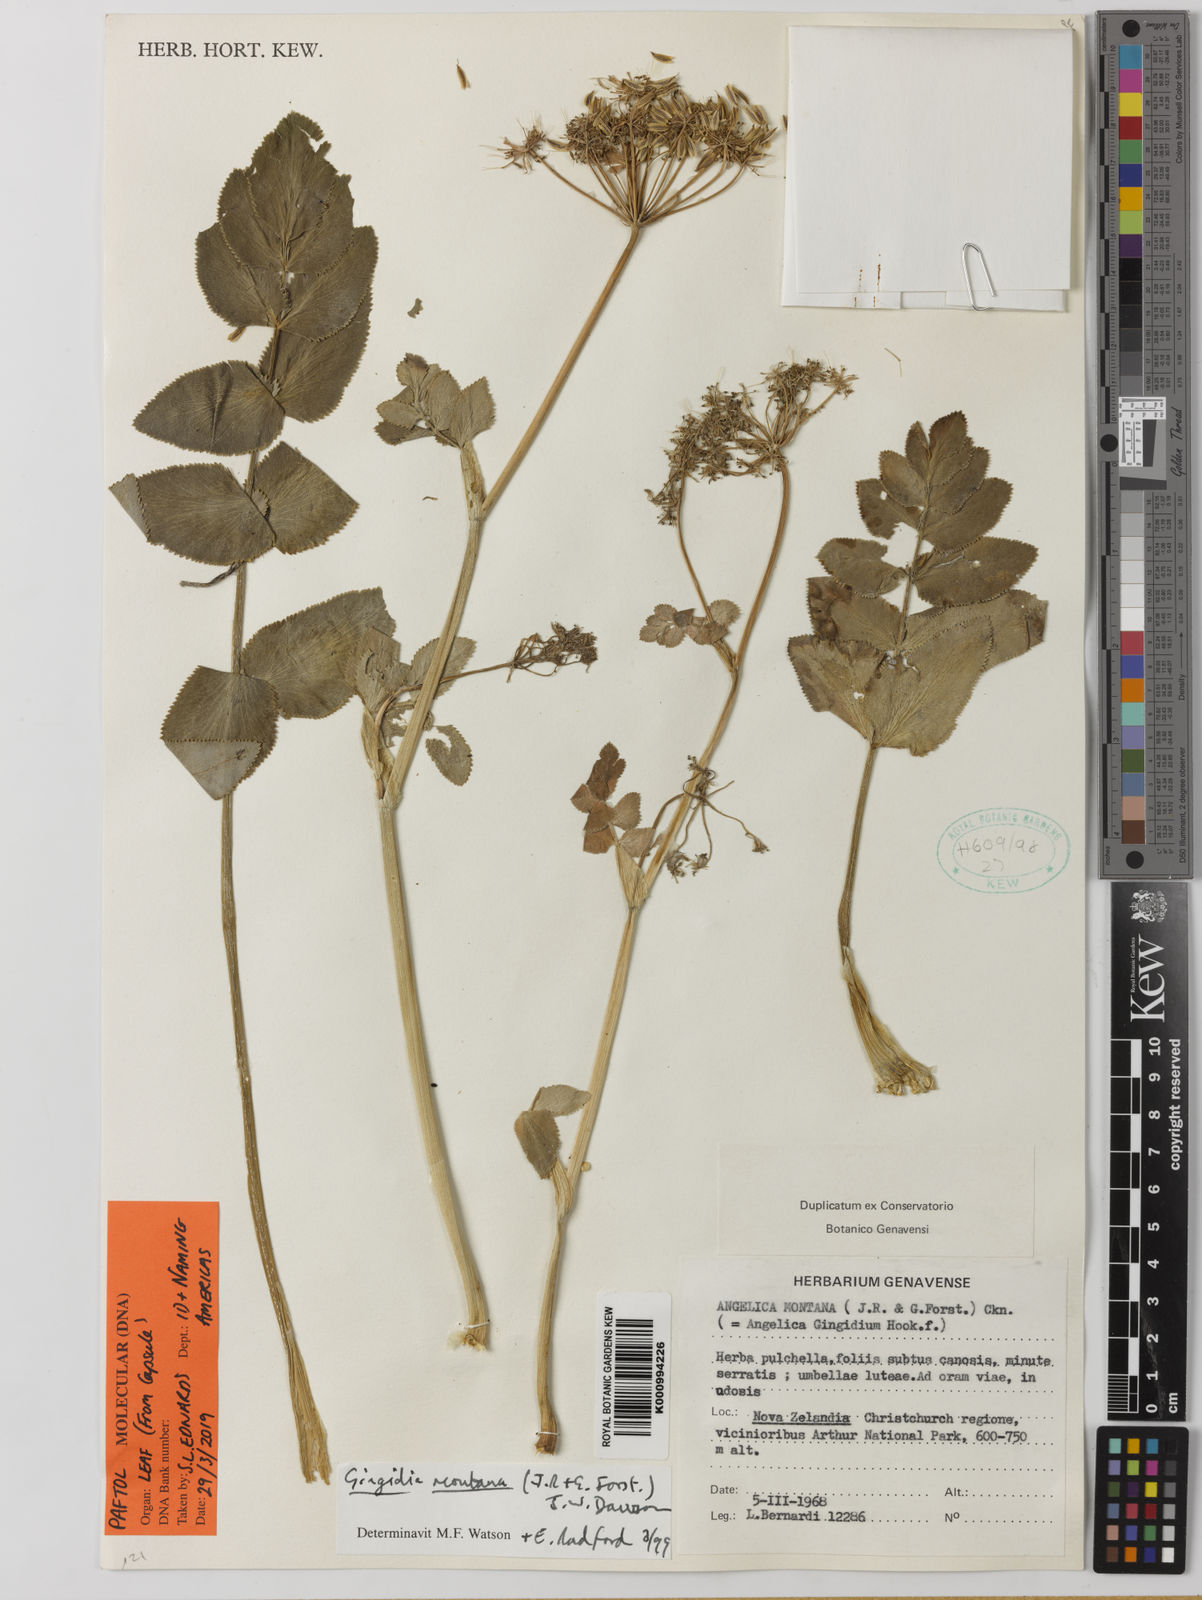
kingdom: Plantae
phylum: Tracheophyta
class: Magnoliopsida
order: Apiales
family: Apiaceae
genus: Gingidia
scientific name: Gingidia montana
